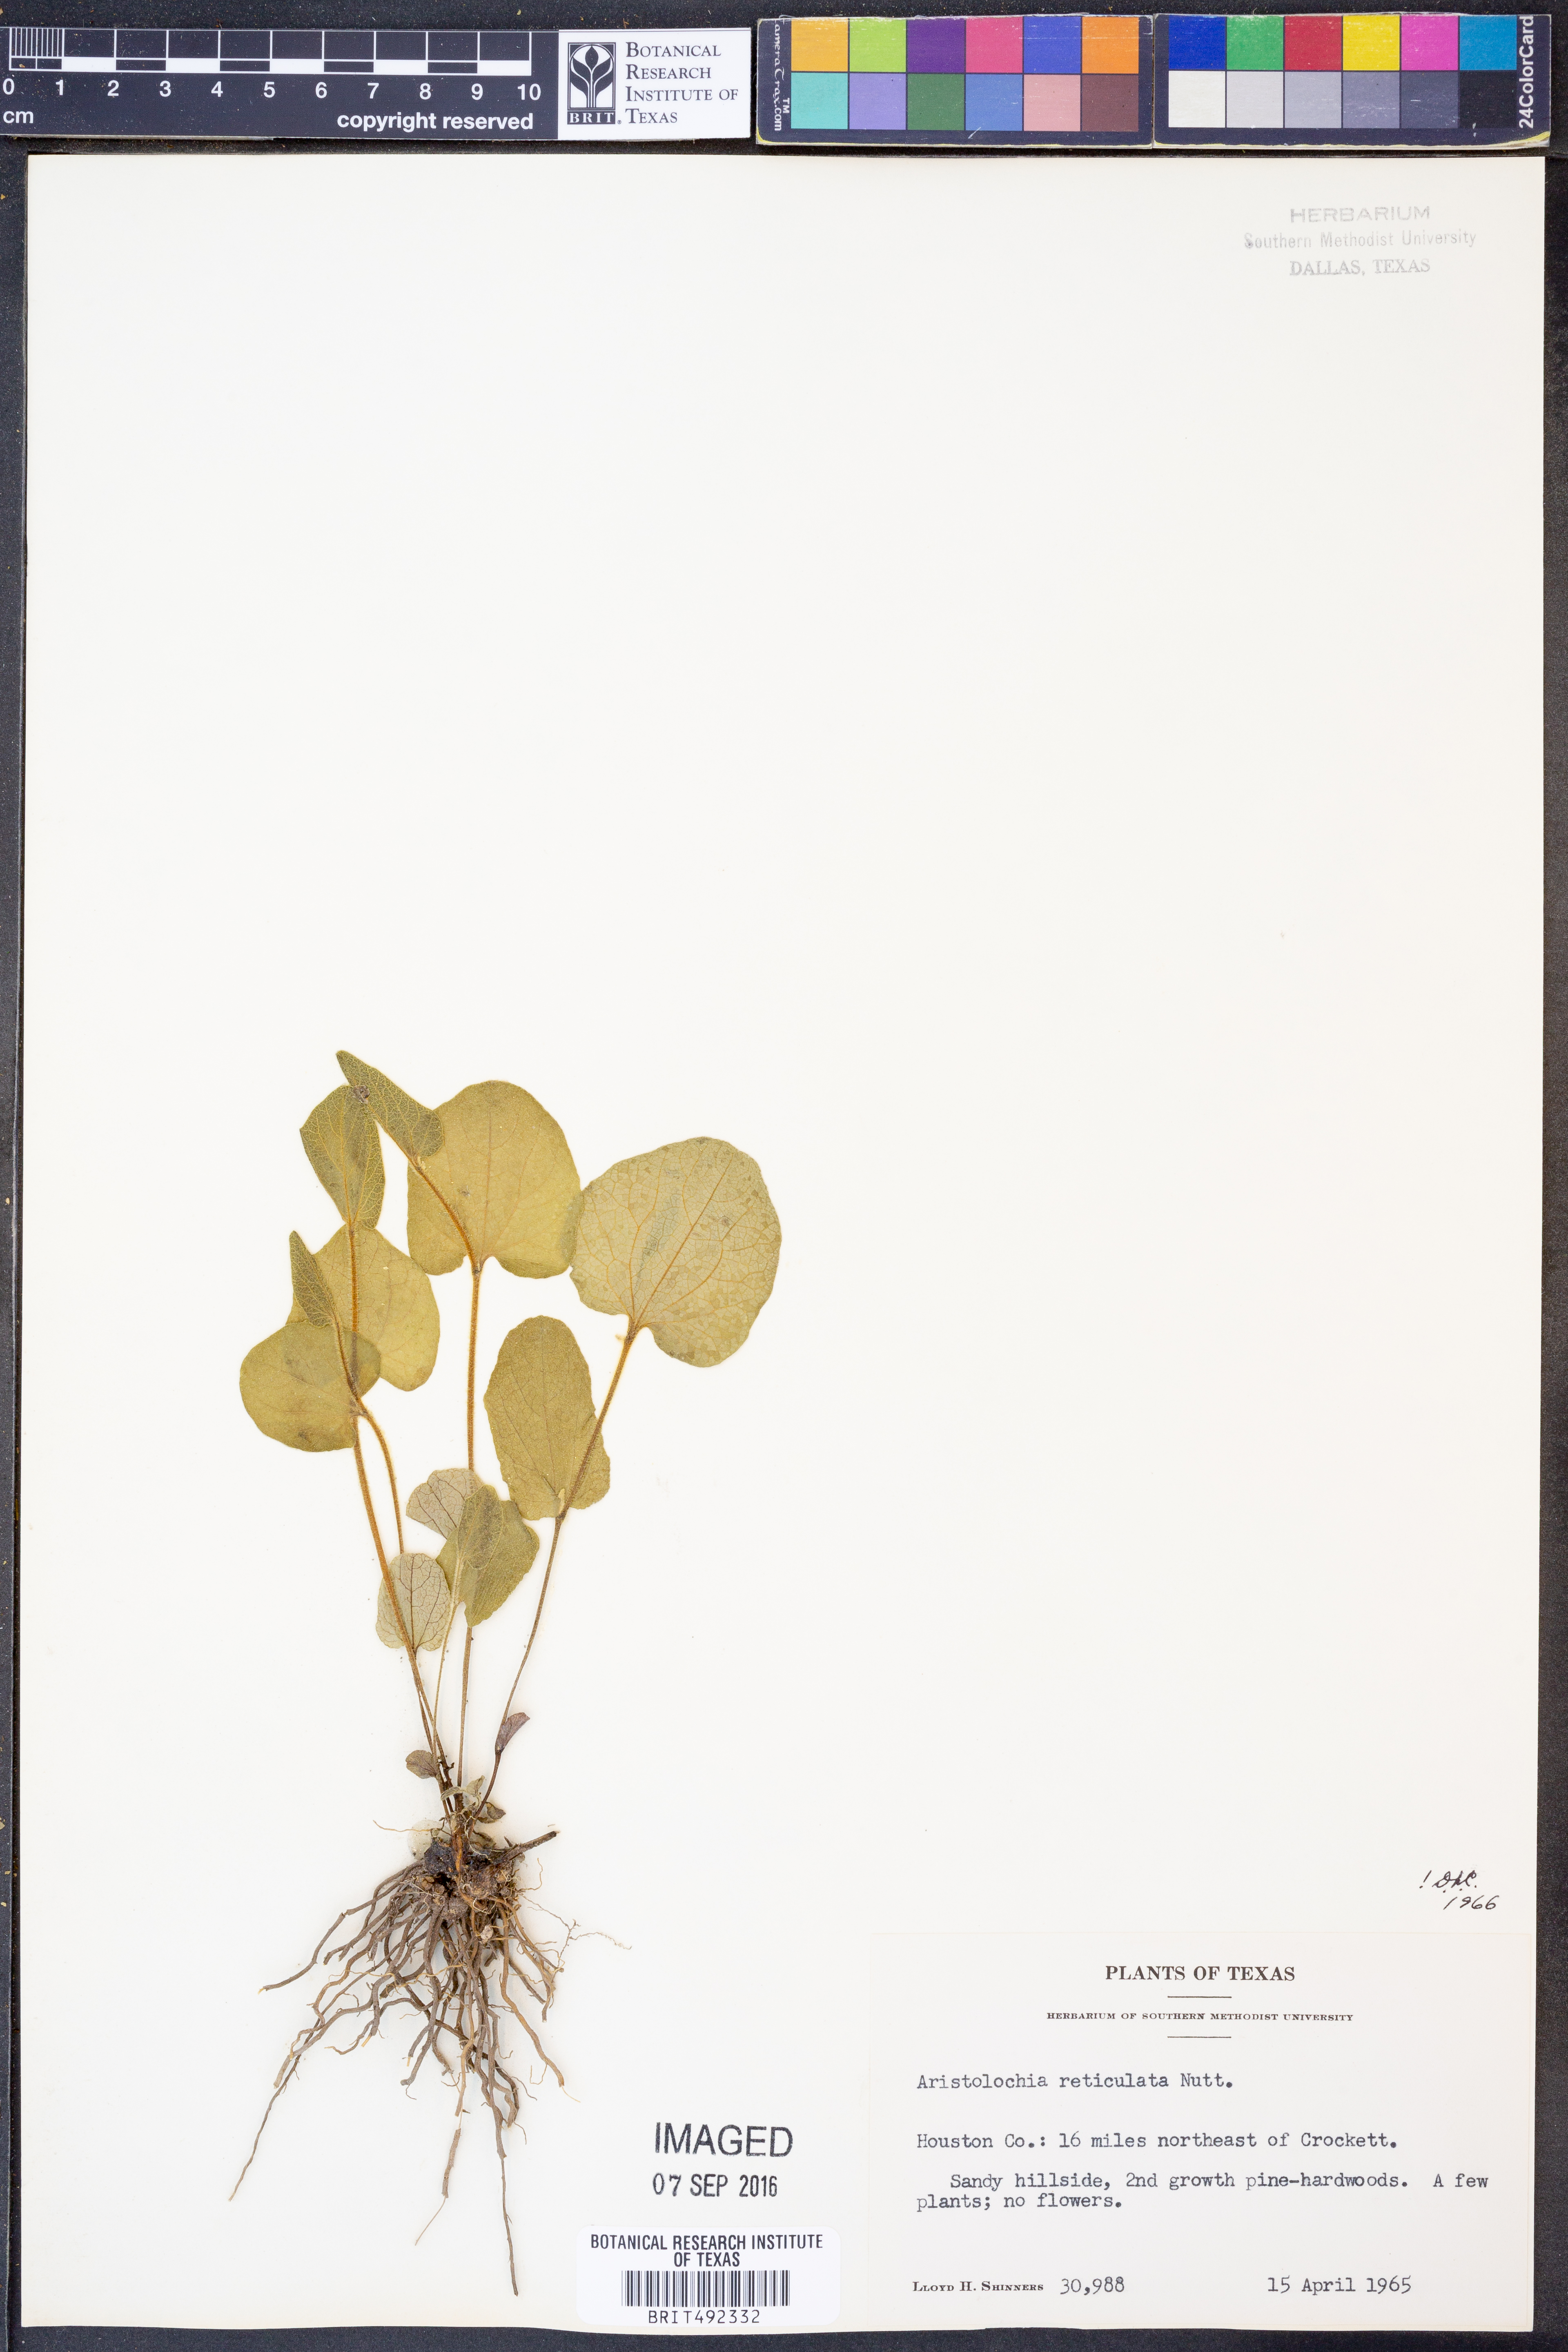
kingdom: Plantae
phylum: Tracheophyta
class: Magnoliopsida
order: Piperales
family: Aristolochiaceae
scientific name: Aristolochiaceae
